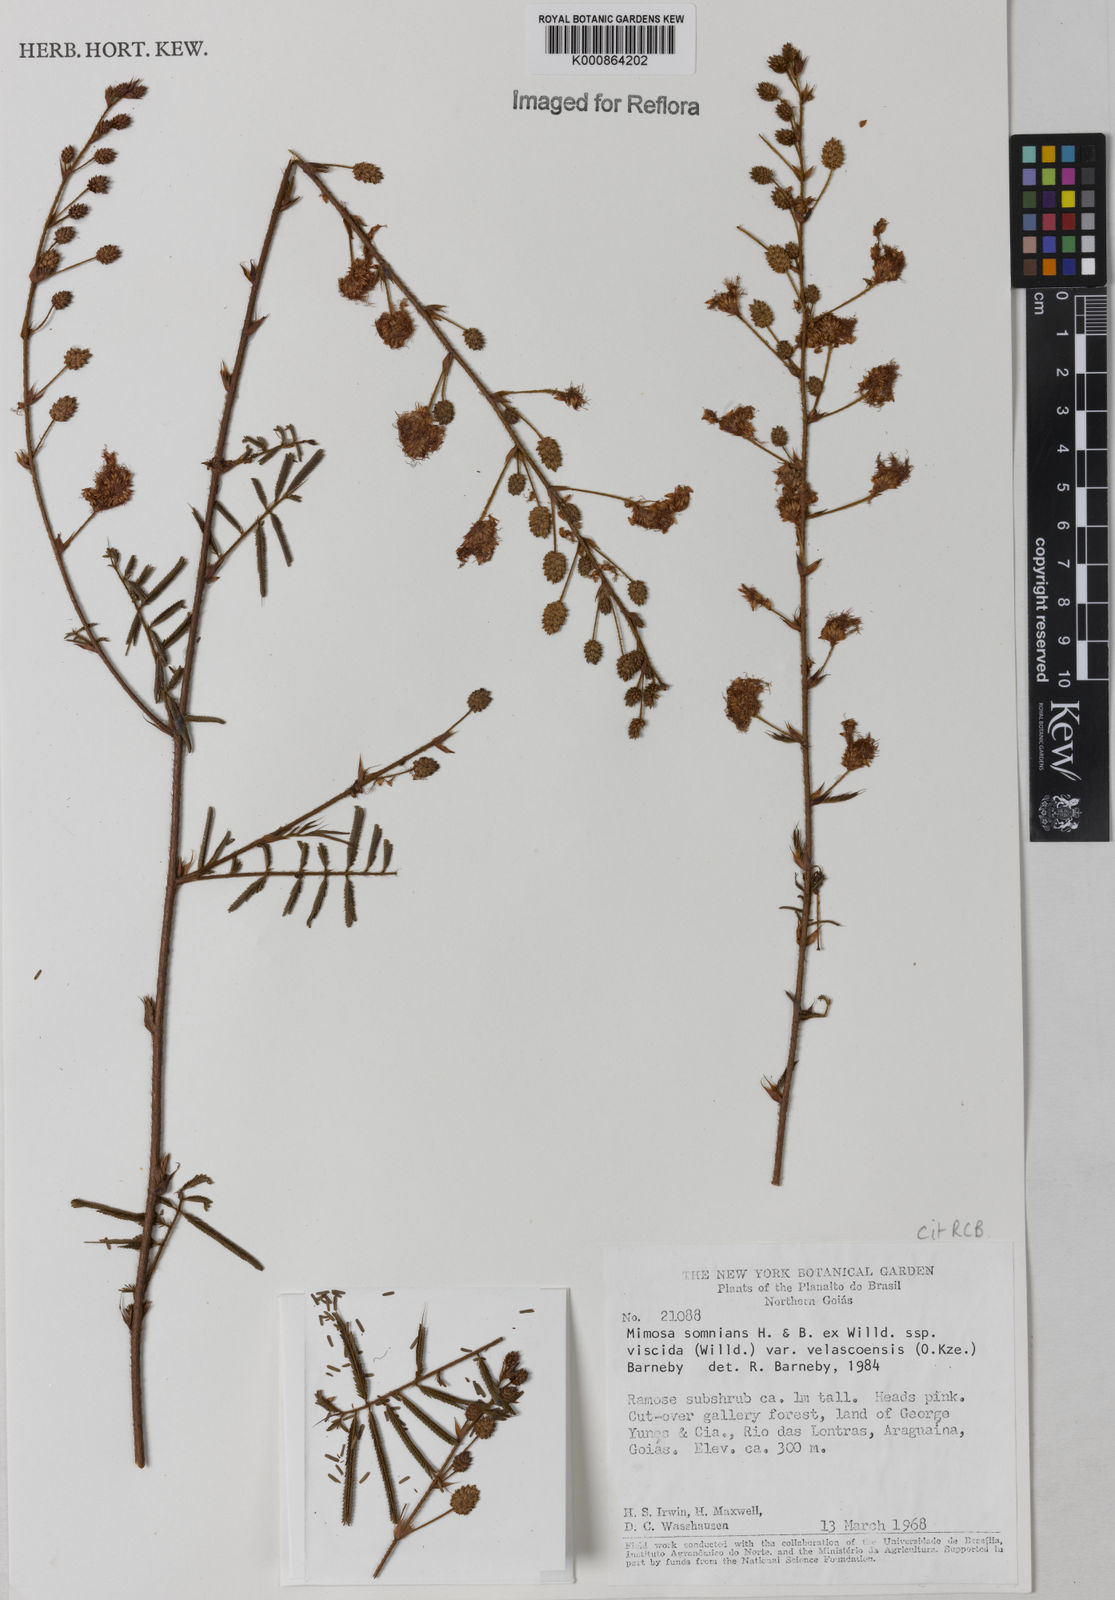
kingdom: Plantae
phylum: Tracheophyta
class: Magnoliopsida
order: Fabales
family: Fabaceae
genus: Mimosa
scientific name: Mimosa somnians
